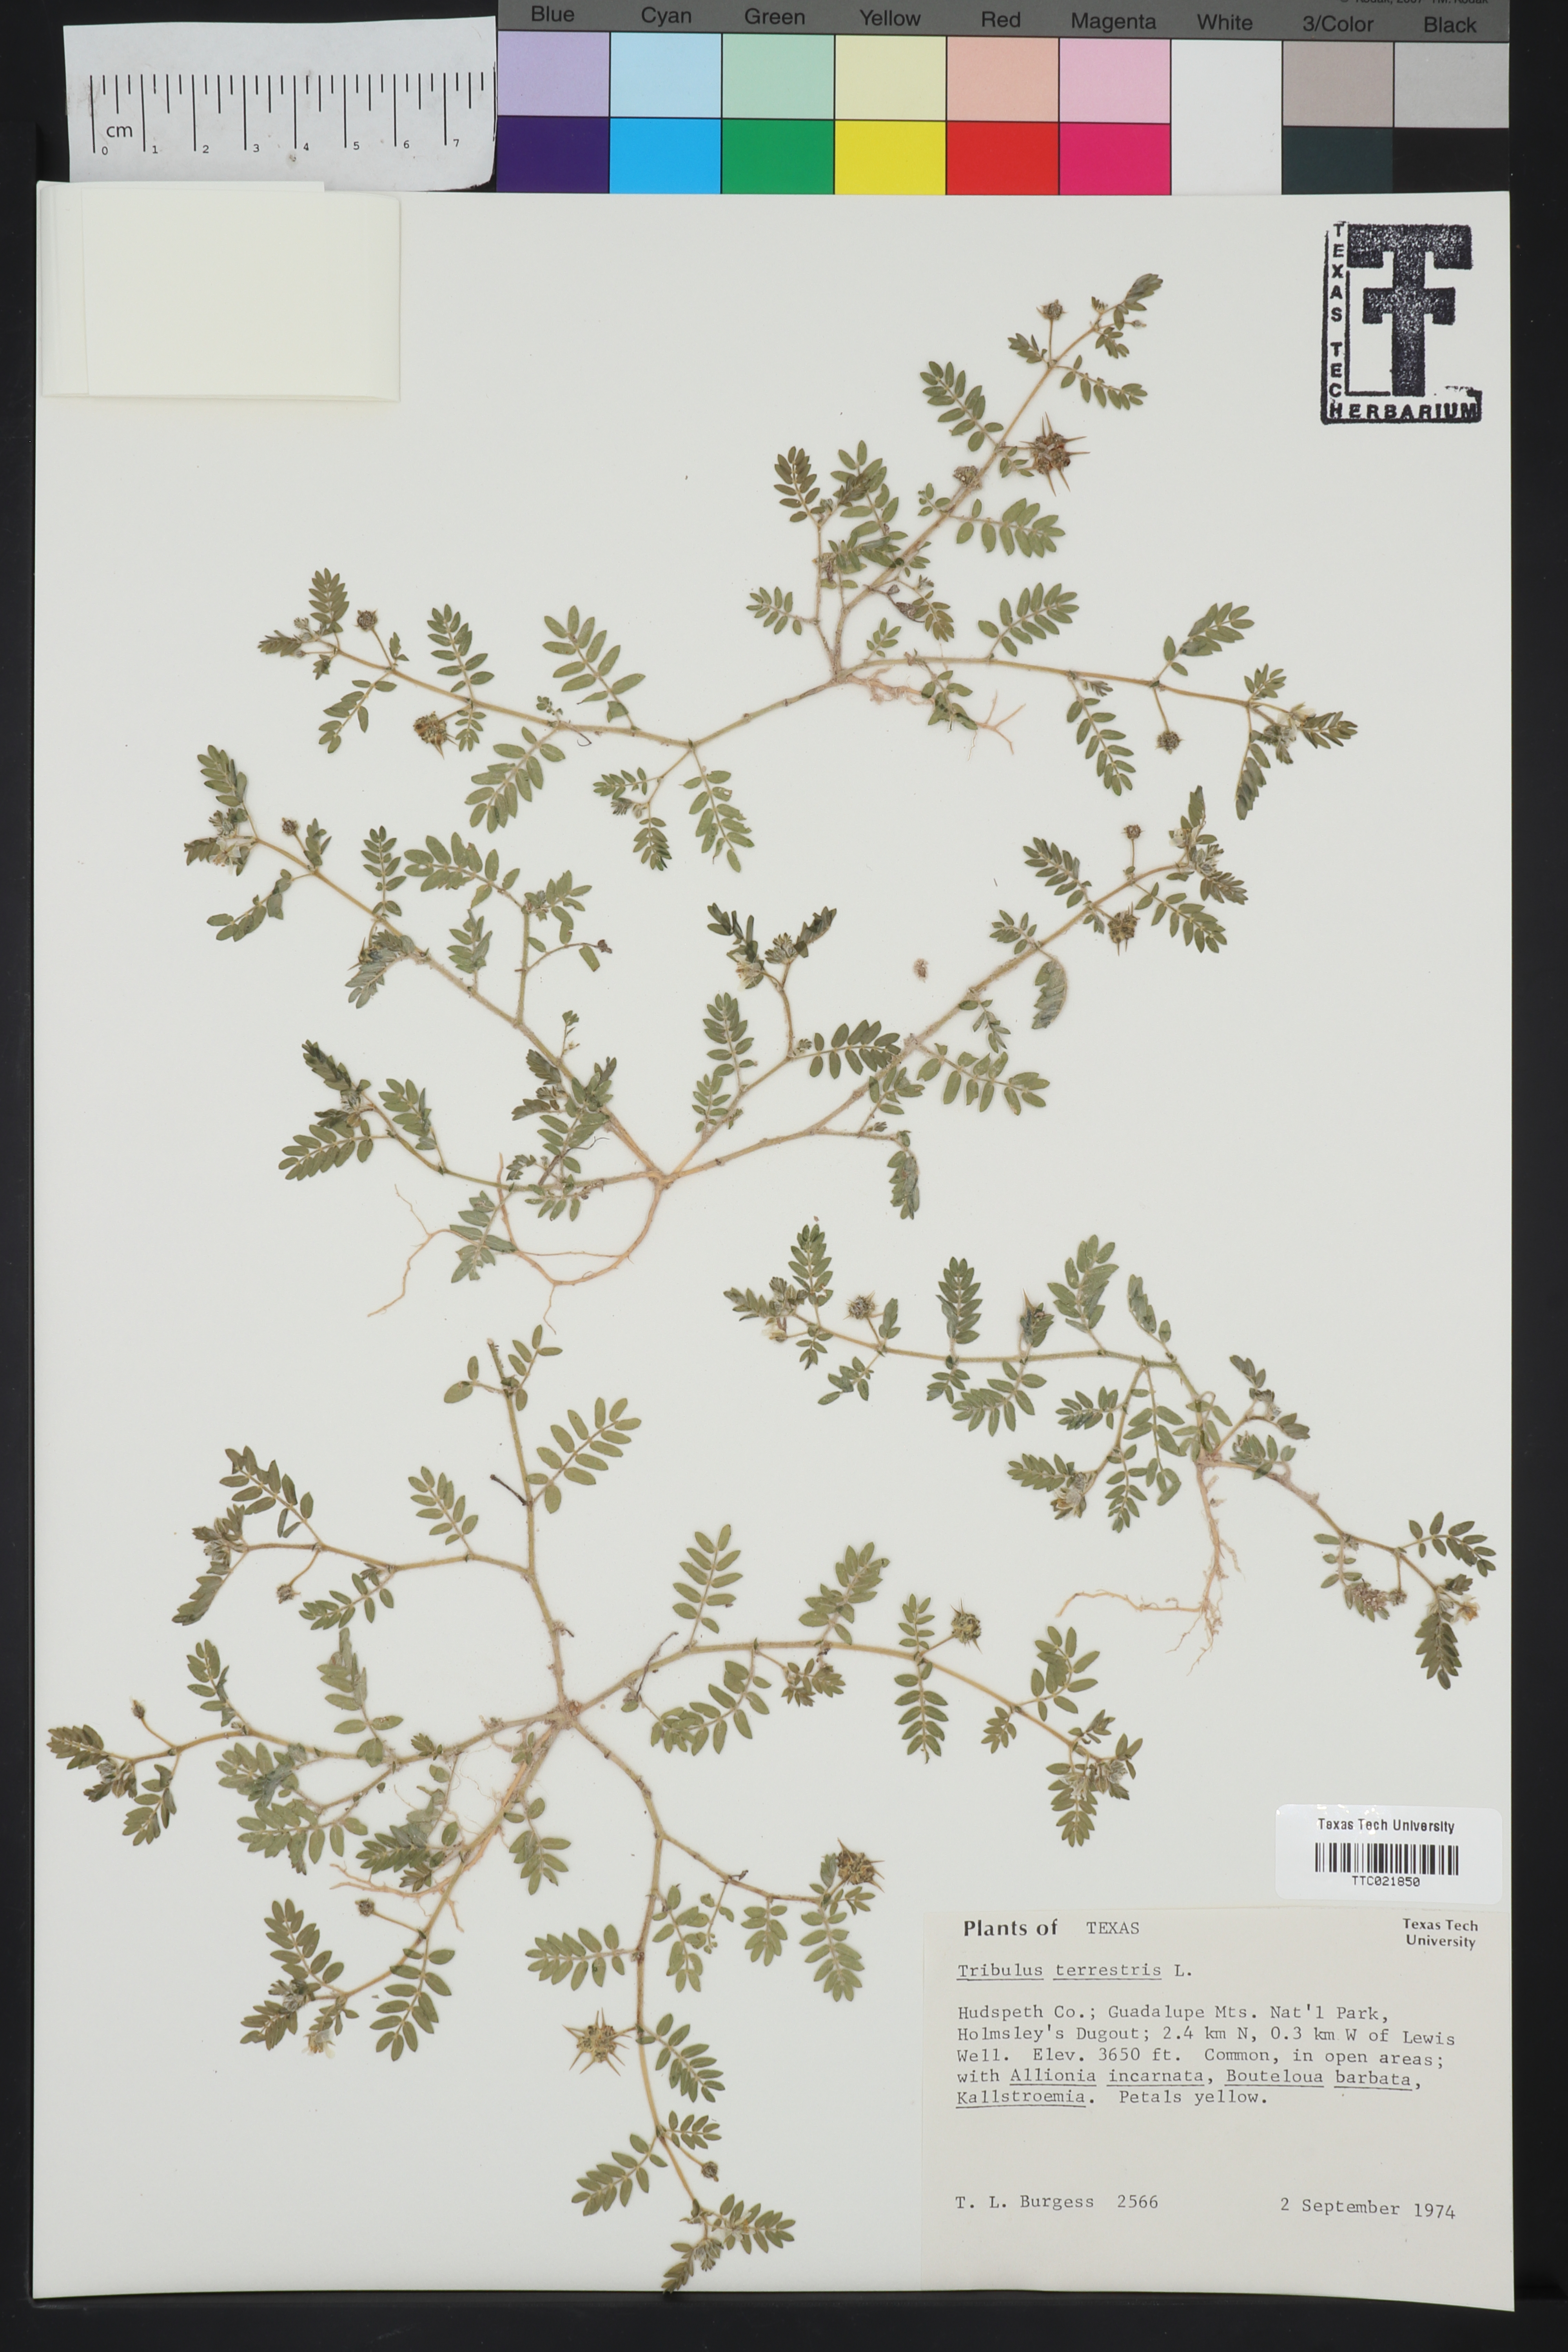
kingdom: Plantae
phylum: Tracheophyta
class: Magnoliopsida
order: Zygophyllales
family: Zygophyllaceae
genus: Tribulus
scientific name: Tribulus terrestris
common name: Puncturevine
